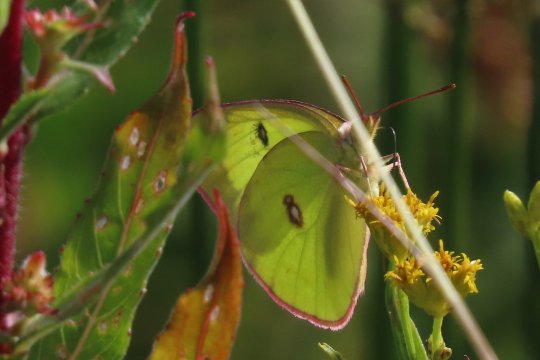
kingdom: Animalia
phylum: Arthropoda
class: Insecta
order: Lepidoptera
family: Pieridae
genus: Colias
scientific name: Colias interior
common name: Pink-edged Sulphur
